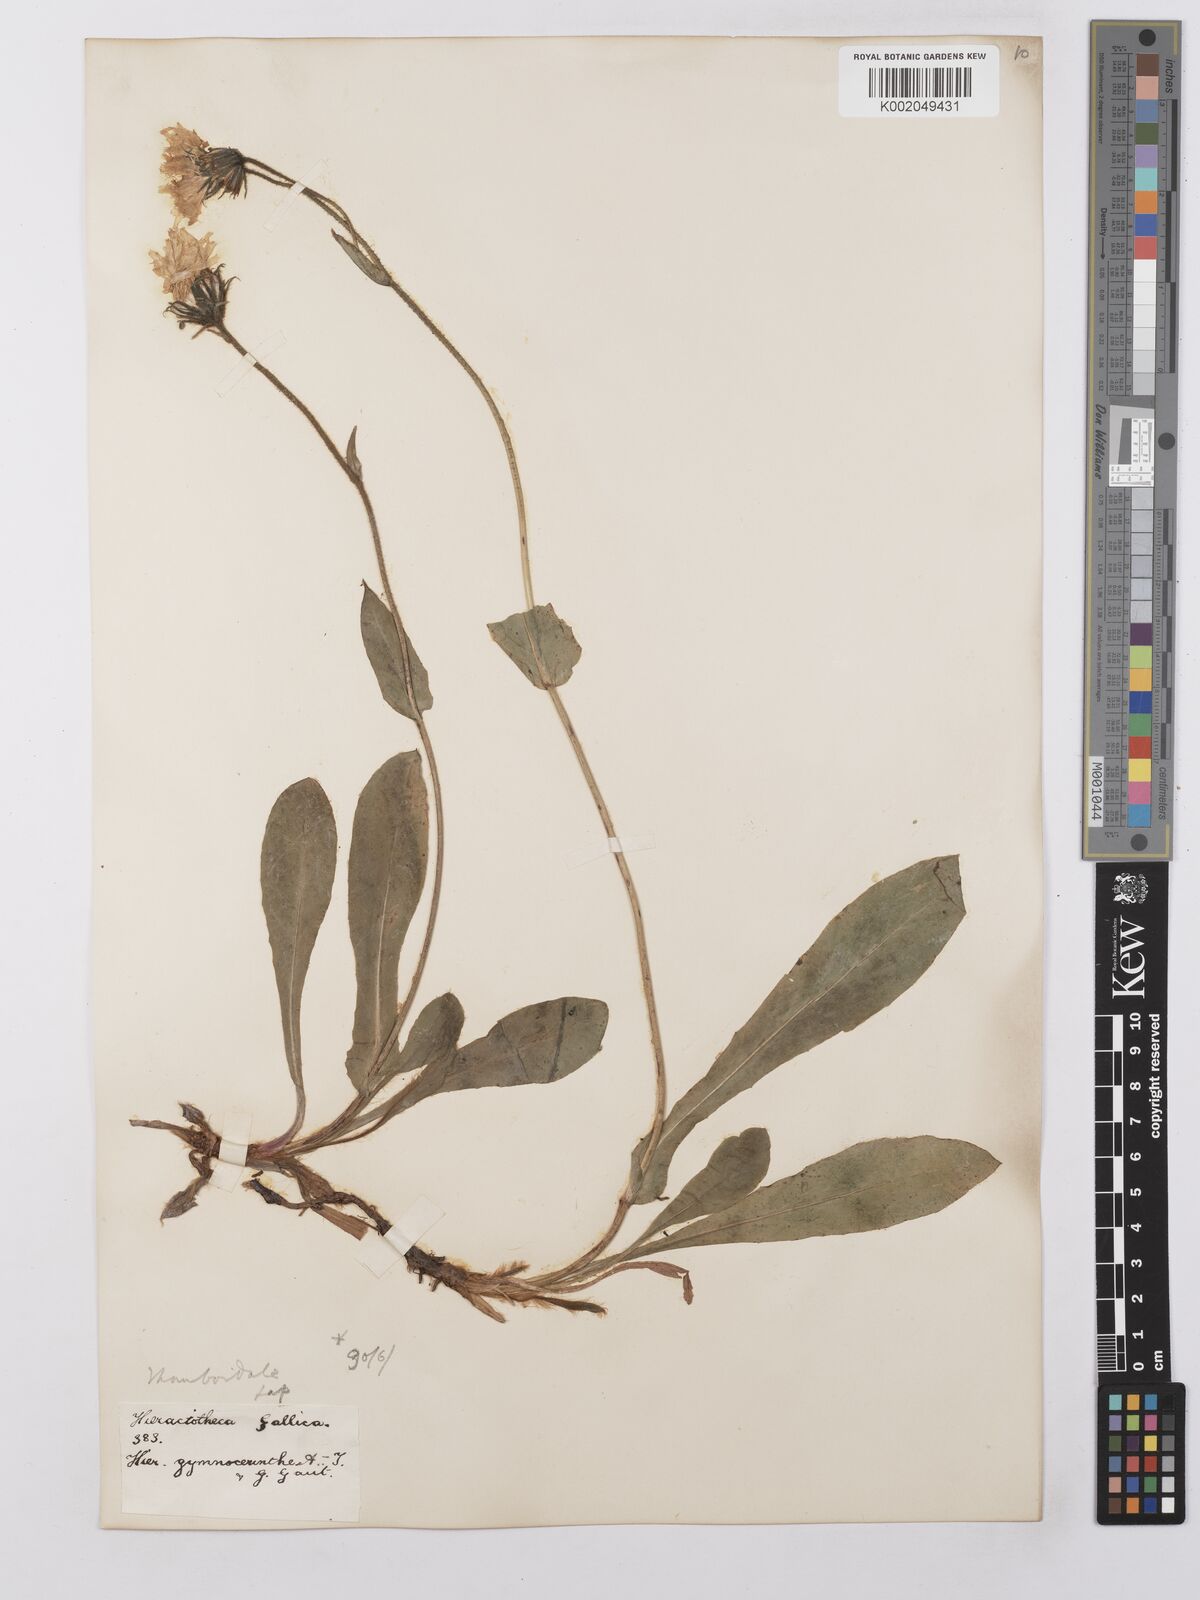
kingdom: Plantae
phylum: Tracheophyta
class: Magnoliopsida
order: Asterales
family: Asteraceae
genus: Hieracium
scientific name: Hieracium cerinthoides
